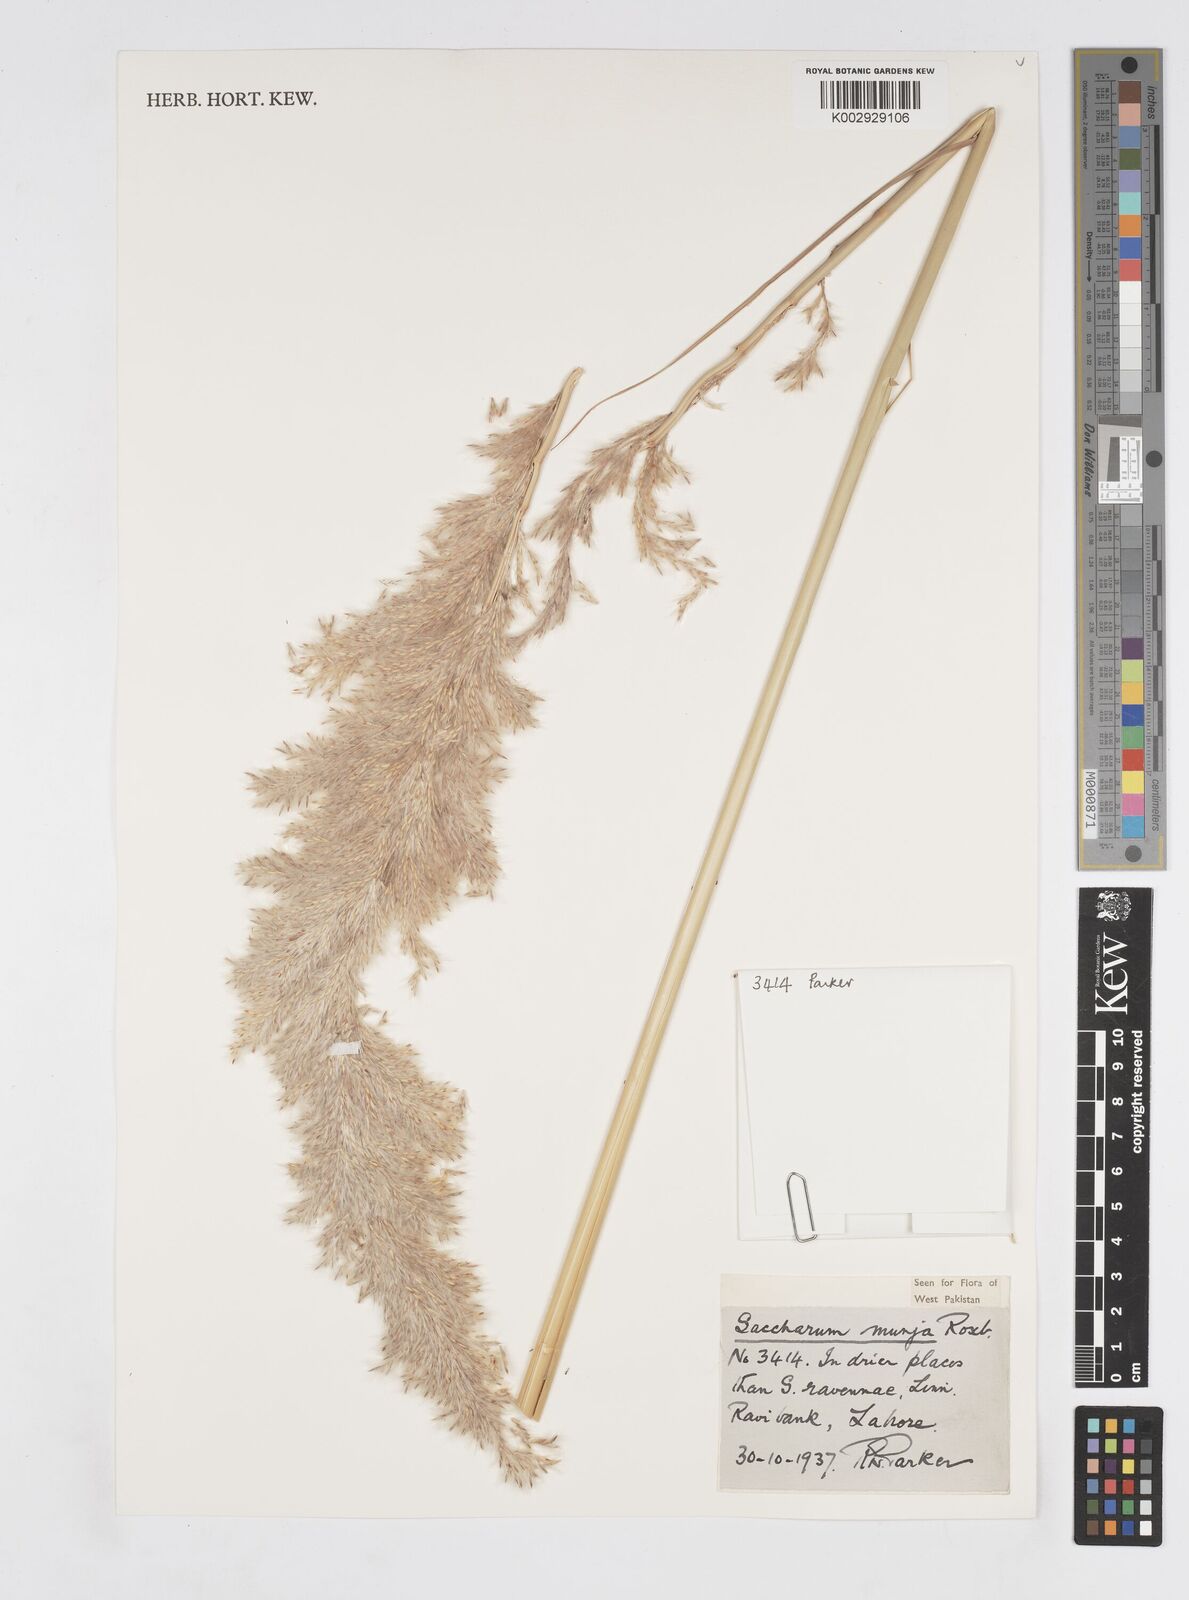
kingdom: Plantae
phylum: Tracheophyta
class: Liliopsida
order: Poales
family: Poaceae
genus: Saccharum
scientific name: Saccharum
